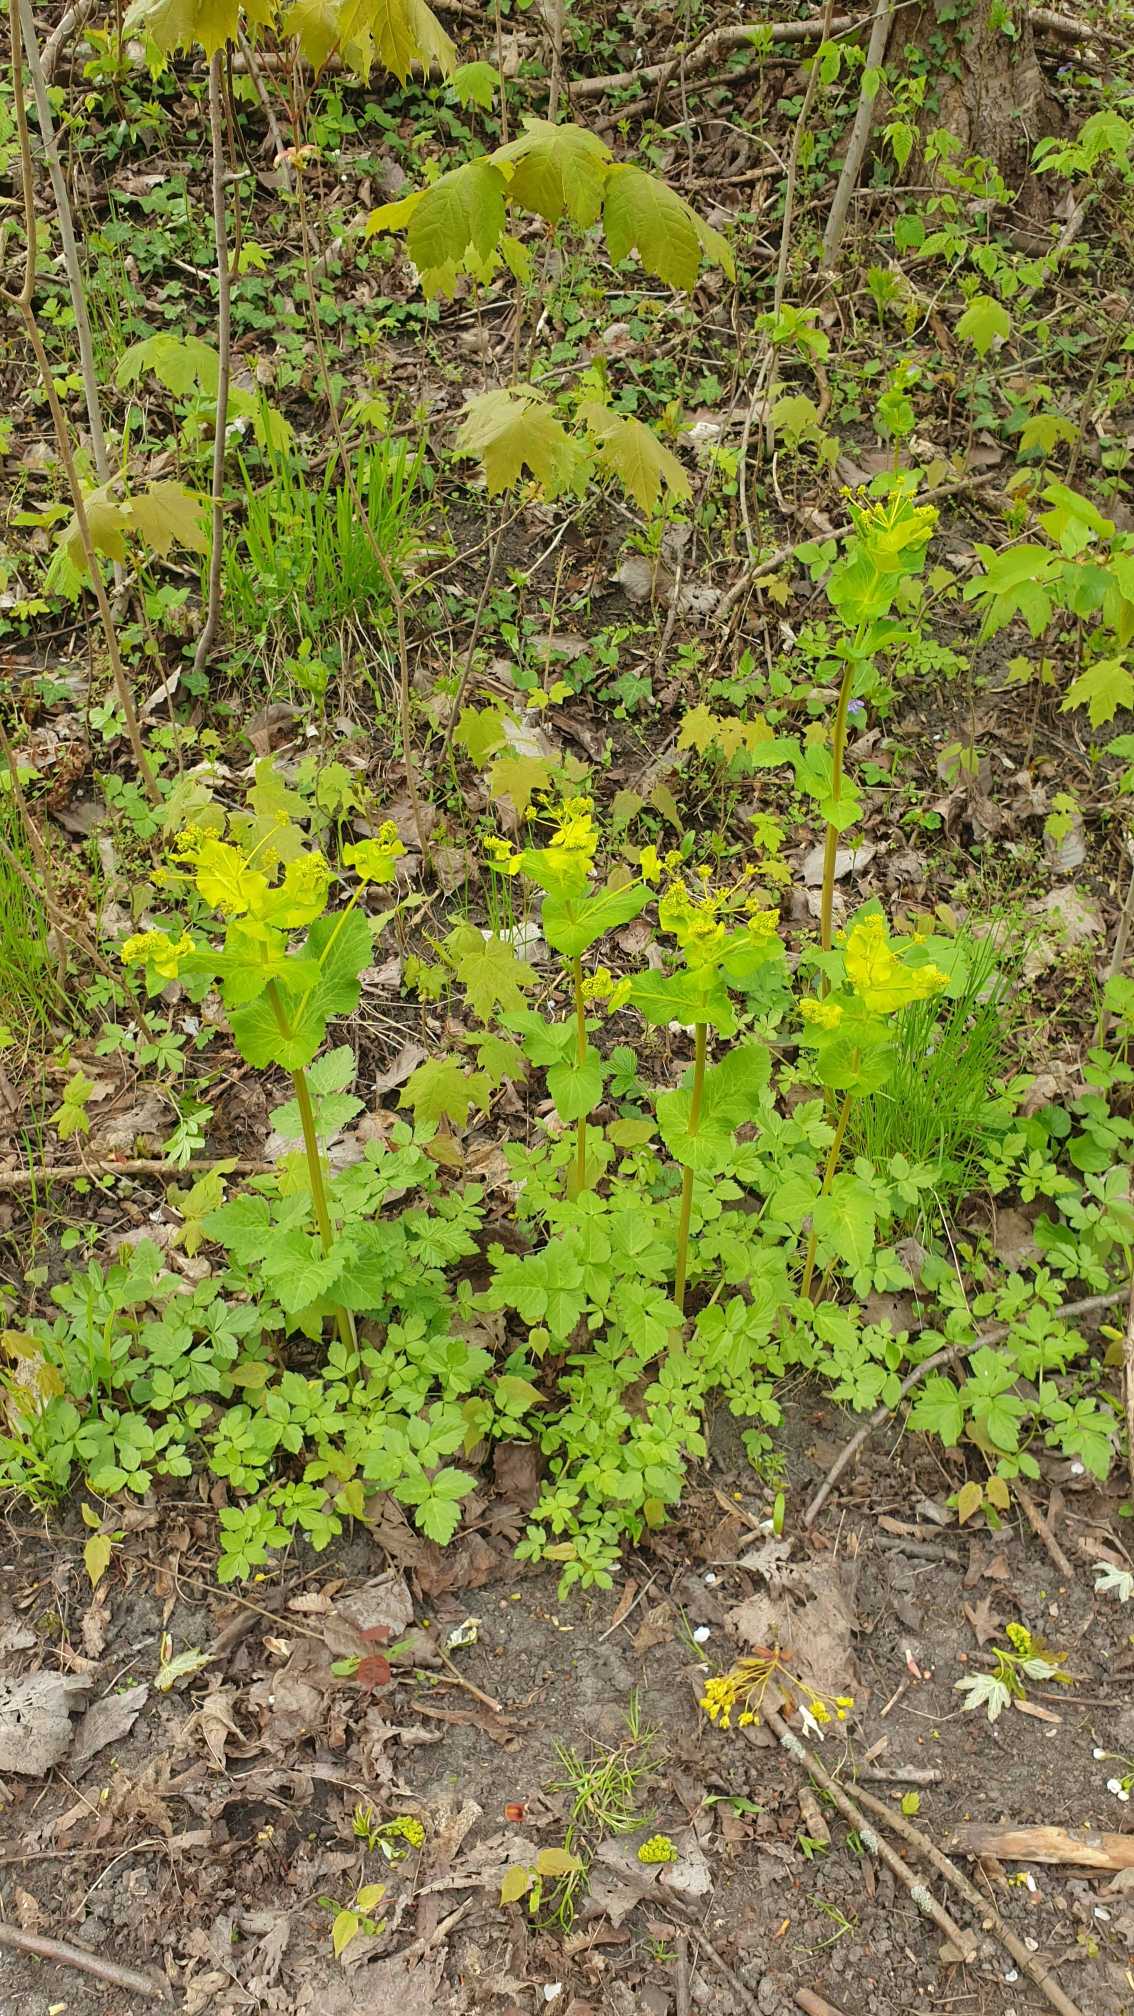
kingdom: Plantae
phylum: Tracheophyta
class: Magnoliopsida
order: Apiales
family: Apiaceae
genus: Smyrnium
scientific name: Smyrnium perfoliatum
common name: Lundgylden
